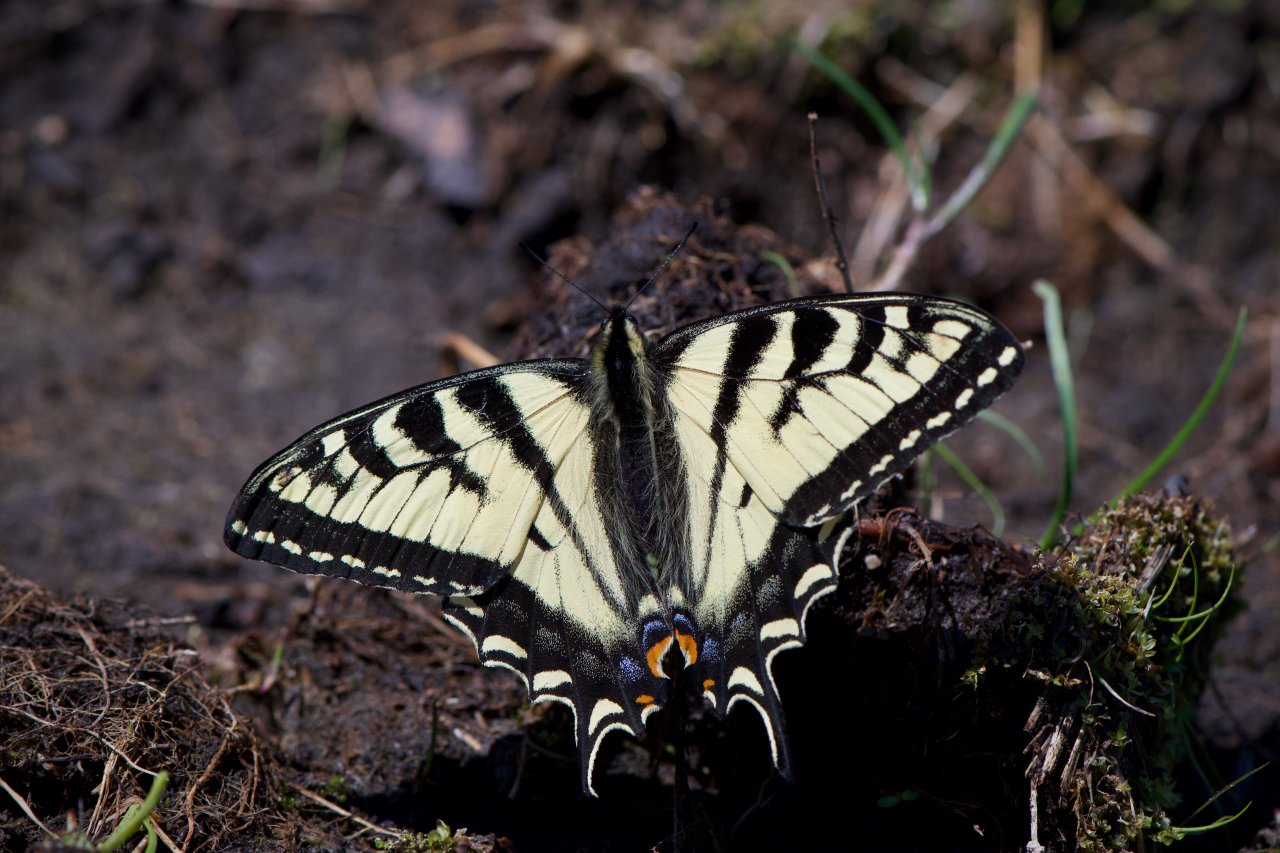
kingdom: Animalia
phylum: Arthropoda
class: Insecta
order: Lepidoptera
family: Papilionidae
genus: Pterourus
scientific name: Pterourus canadensis
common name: Canadian Tiger Swallowtail
